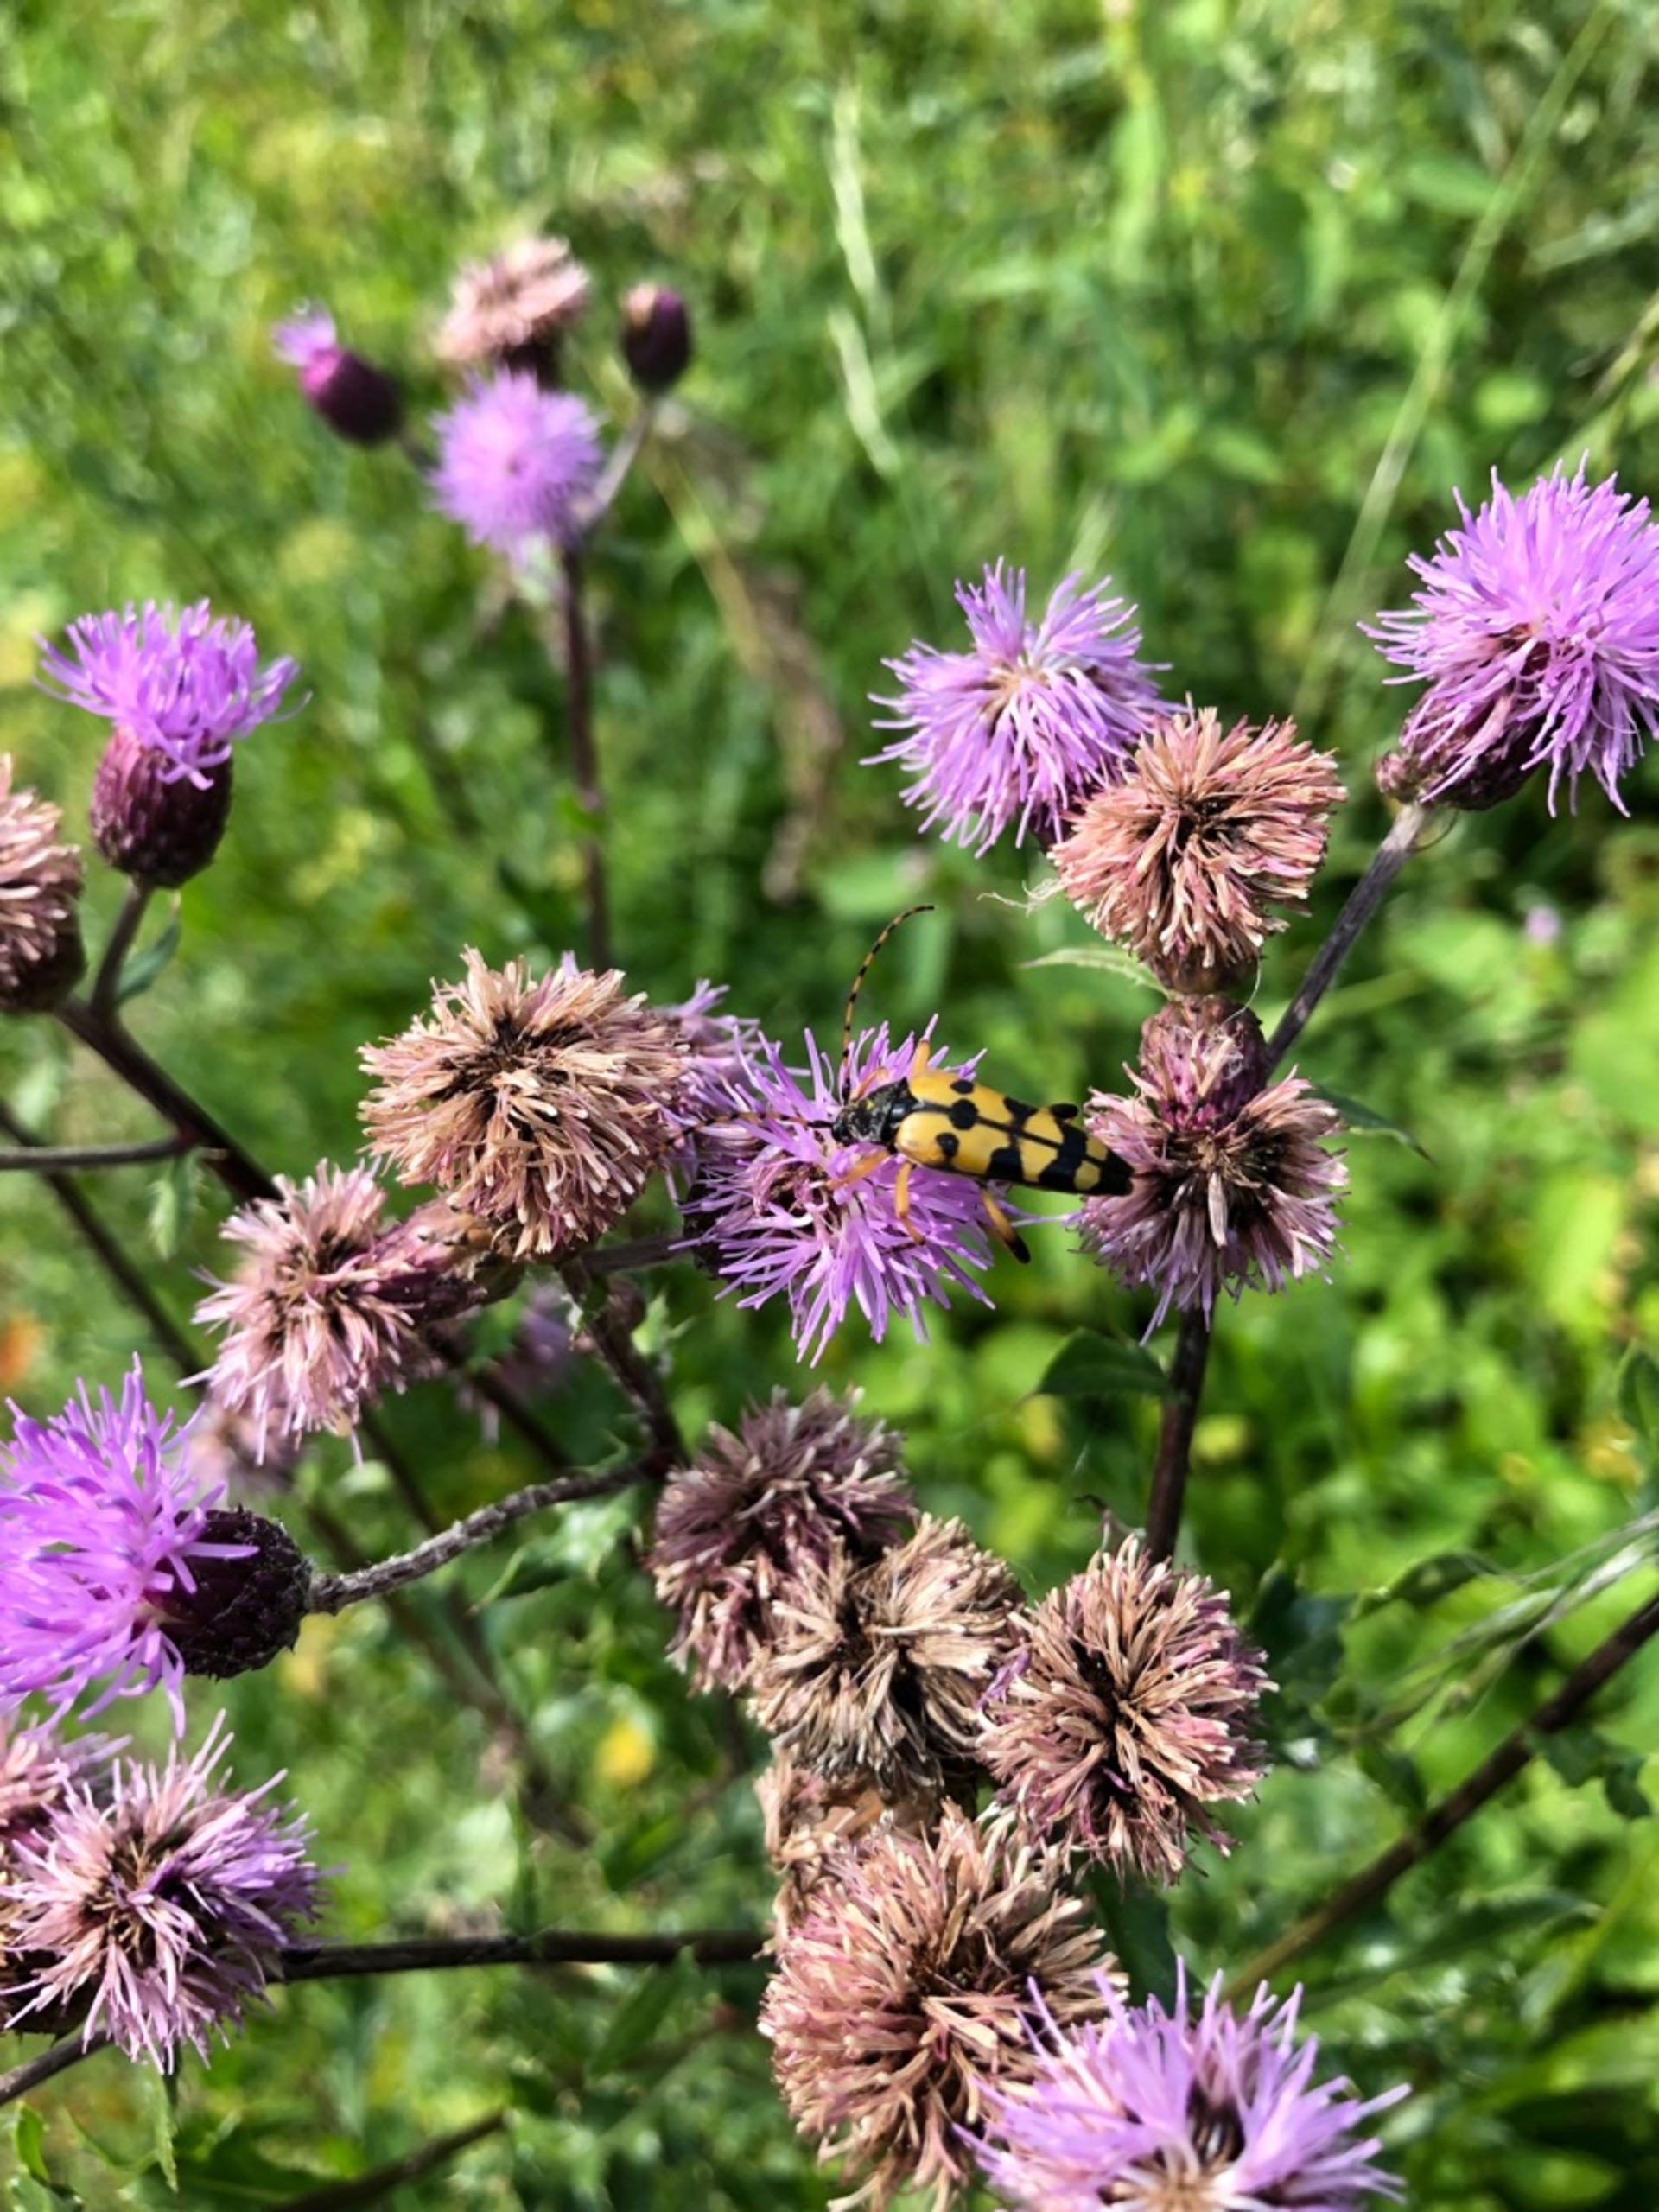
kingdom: Animalia
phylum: Arthropoda
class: Insecta
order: Coleoptera
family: Cerambycidae
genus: Rutpela
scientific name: Rutpela maculata
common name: Sydlig blomsterbuk
